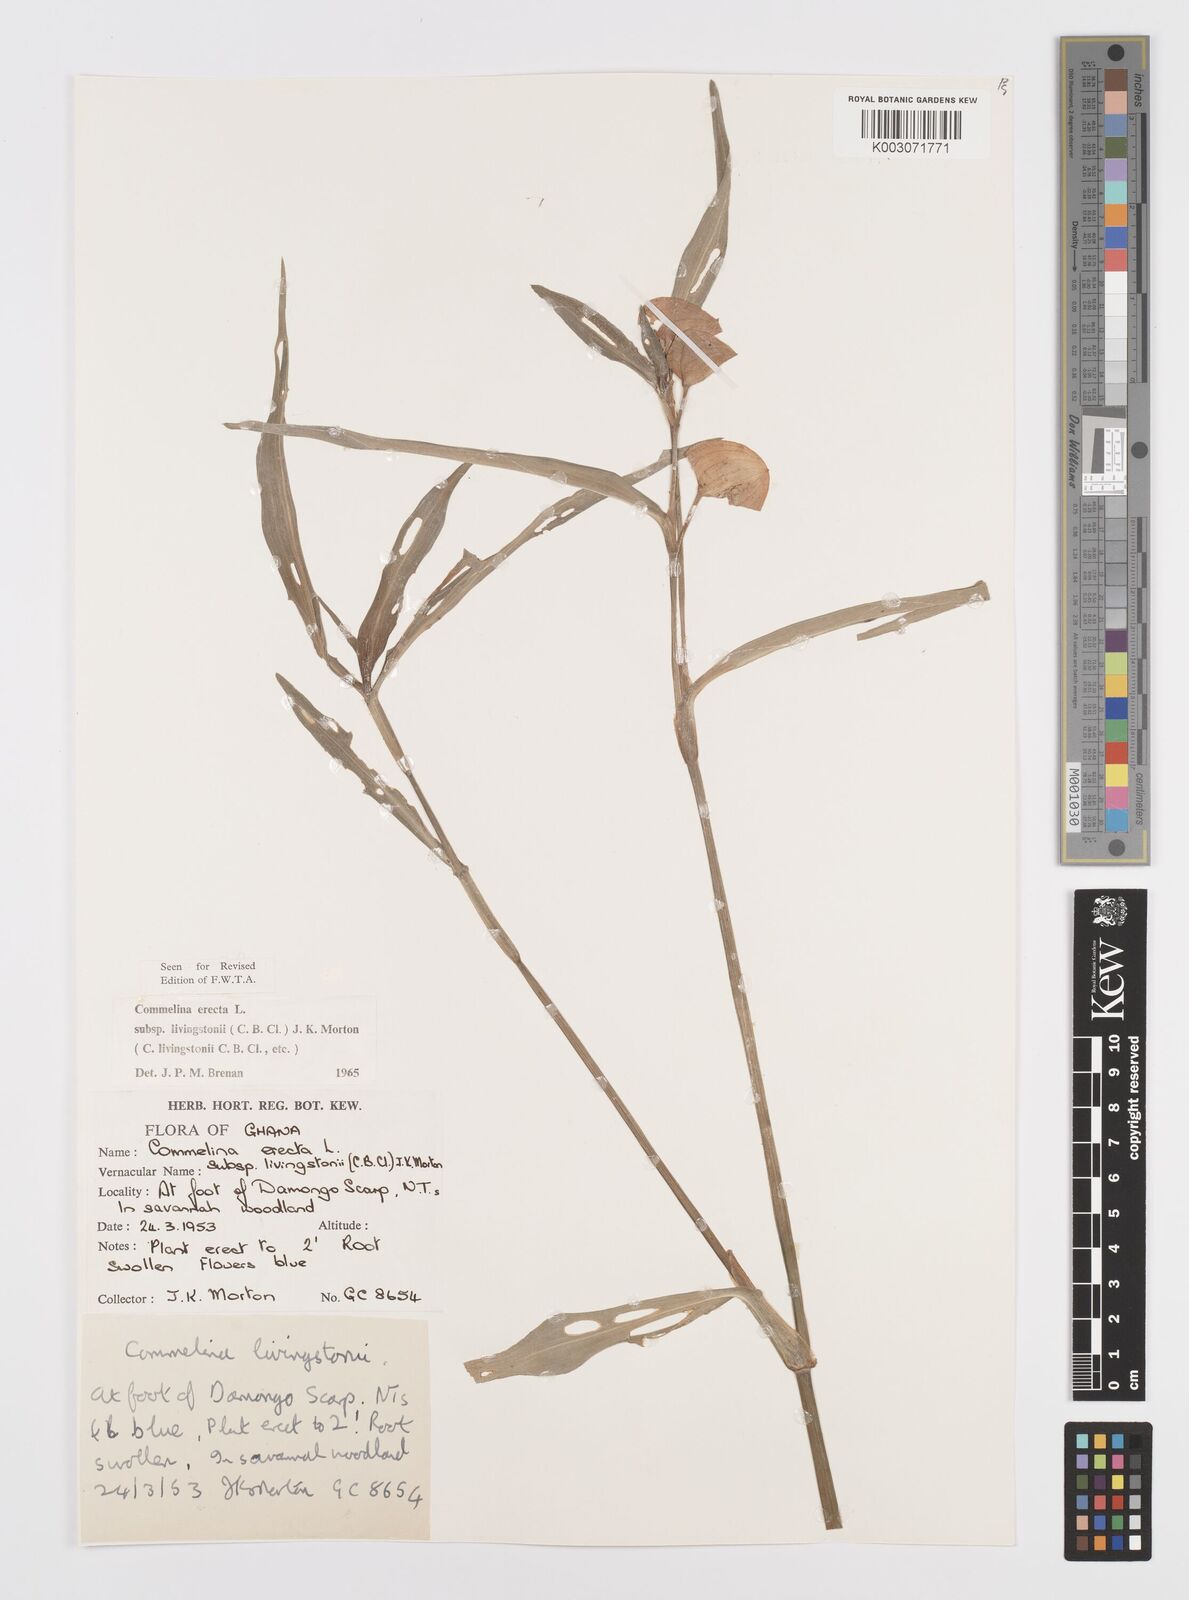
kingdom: Plantae
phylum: Tracheophyta
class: Liliopsida
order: Commelinales
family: Commelinaceae
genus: Commelina
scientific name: Commelina erecta
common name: Blousel blommetjie
